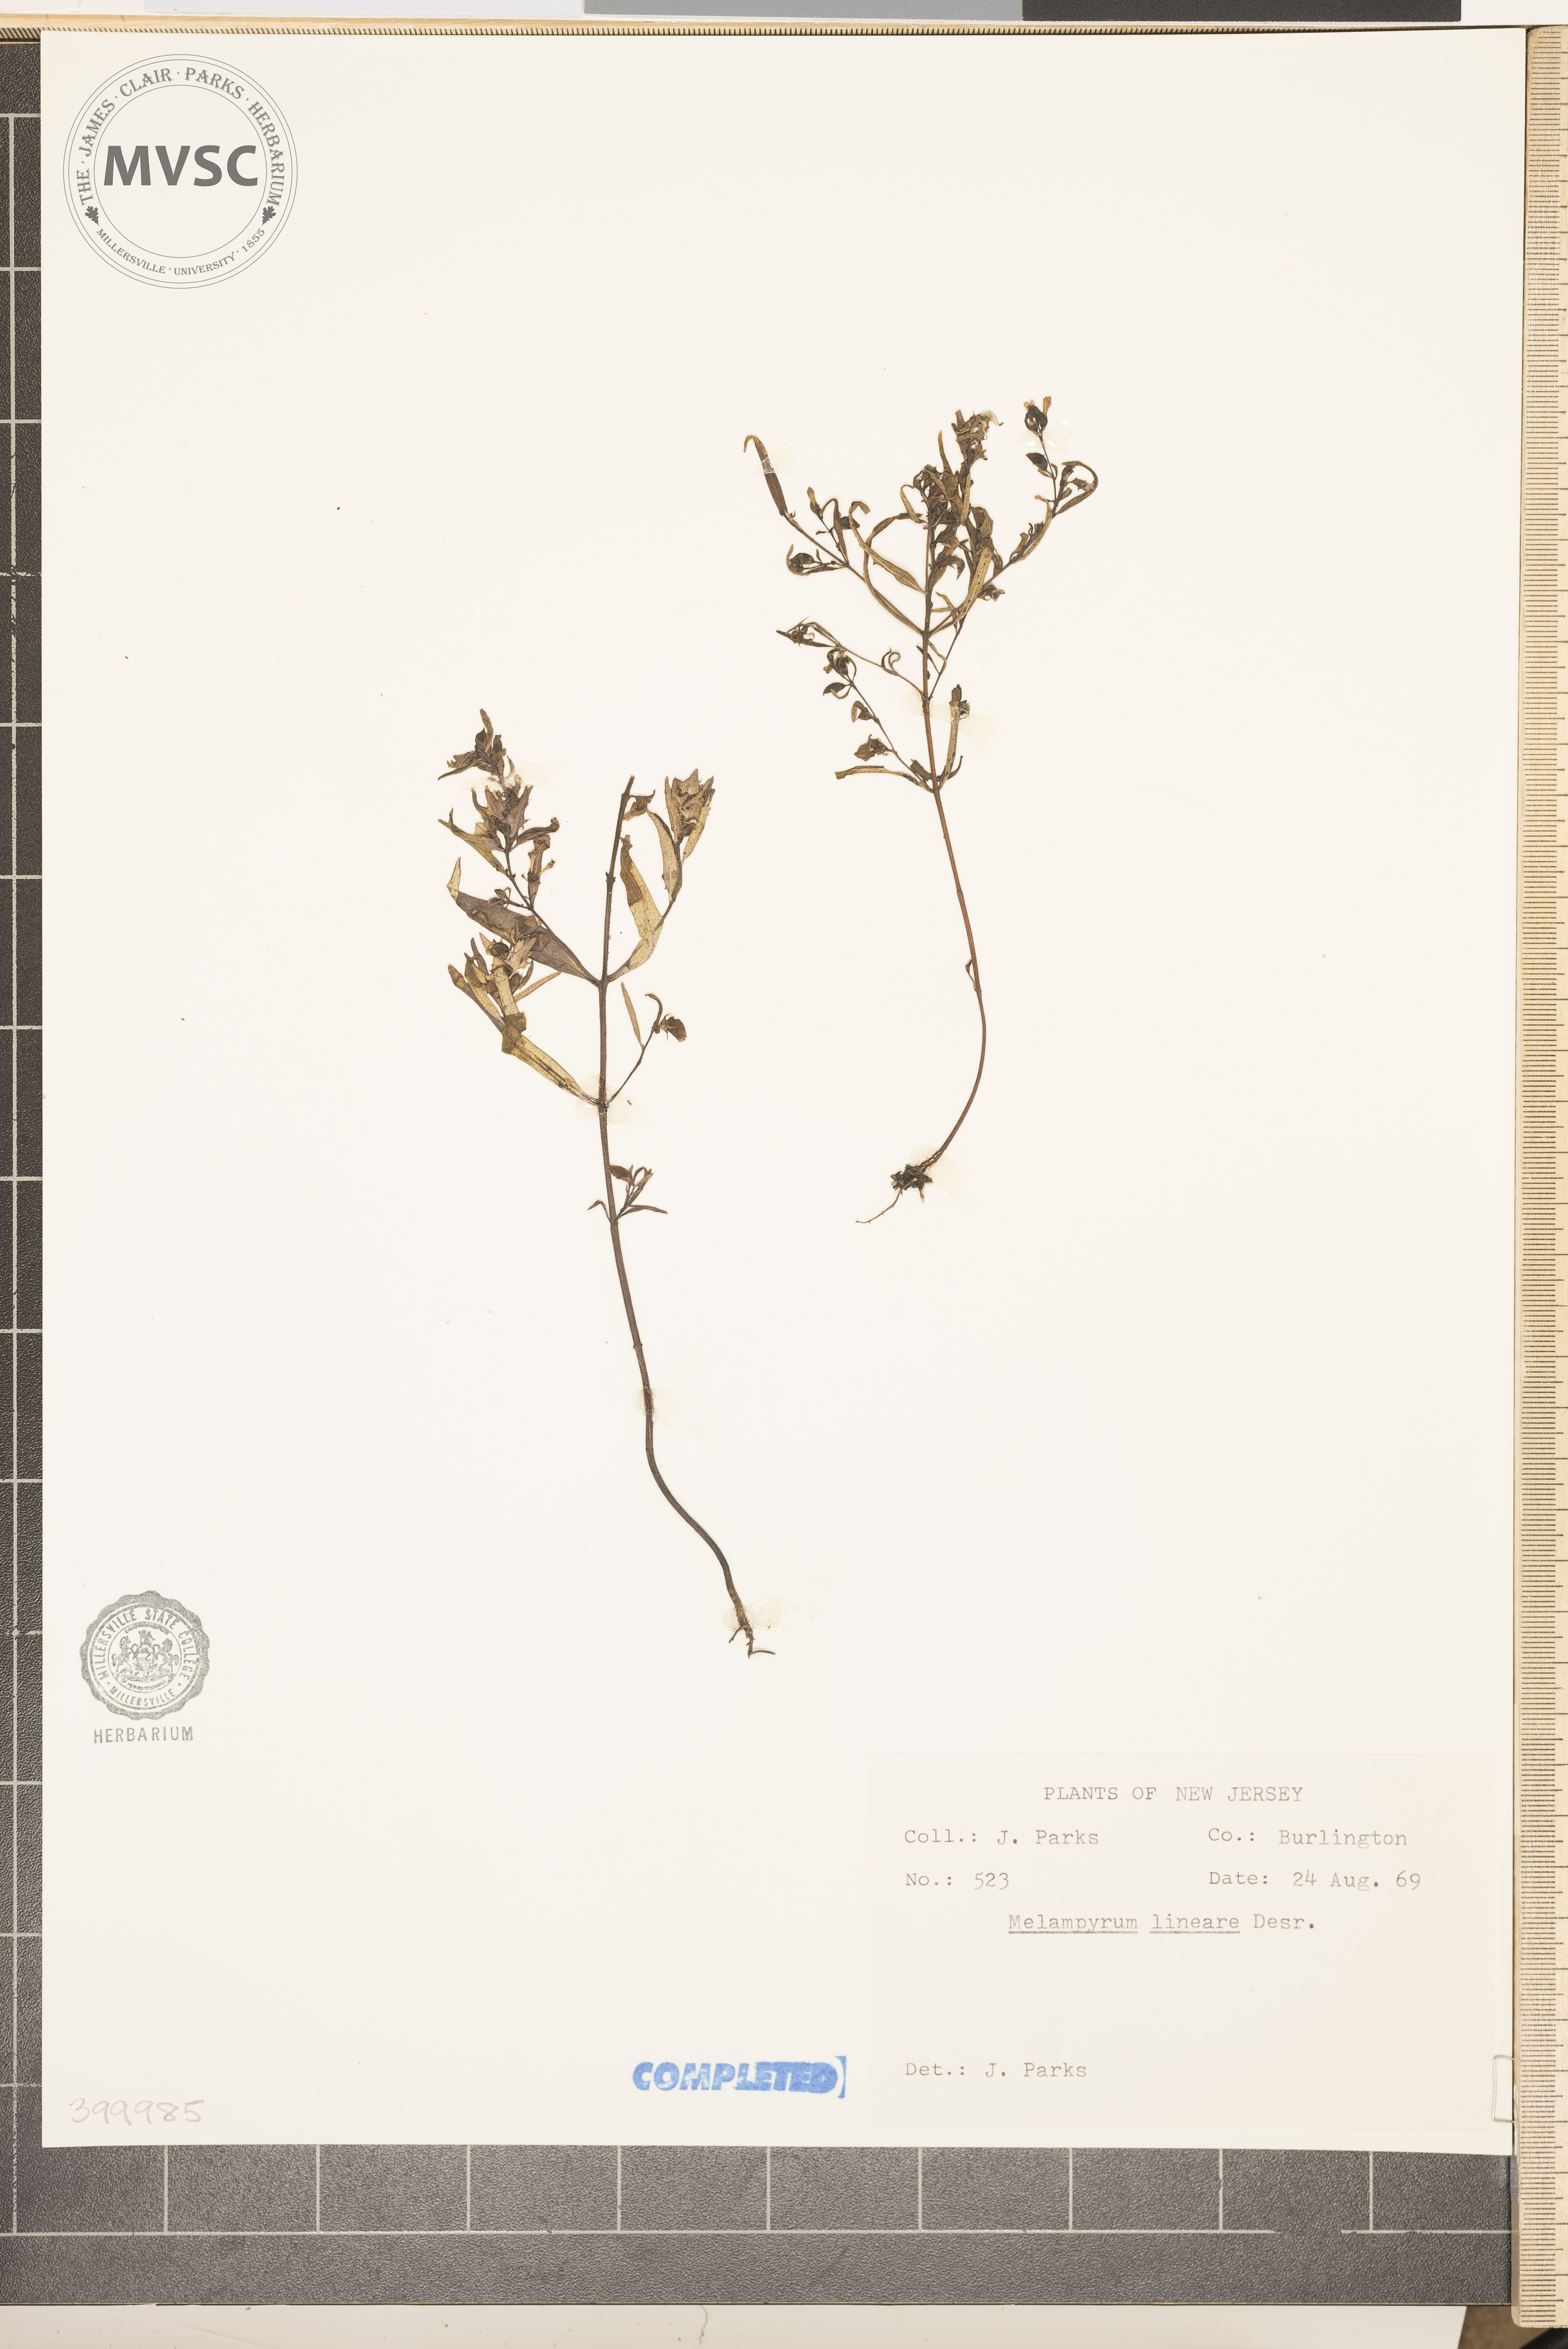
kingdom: Plantae
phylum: Tracheophyta
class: Magnoliopsida
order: Lamiales
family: Orobanchaceae
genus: Melampyrum
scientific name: Melampyrum lineare
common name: American cow-wheat
